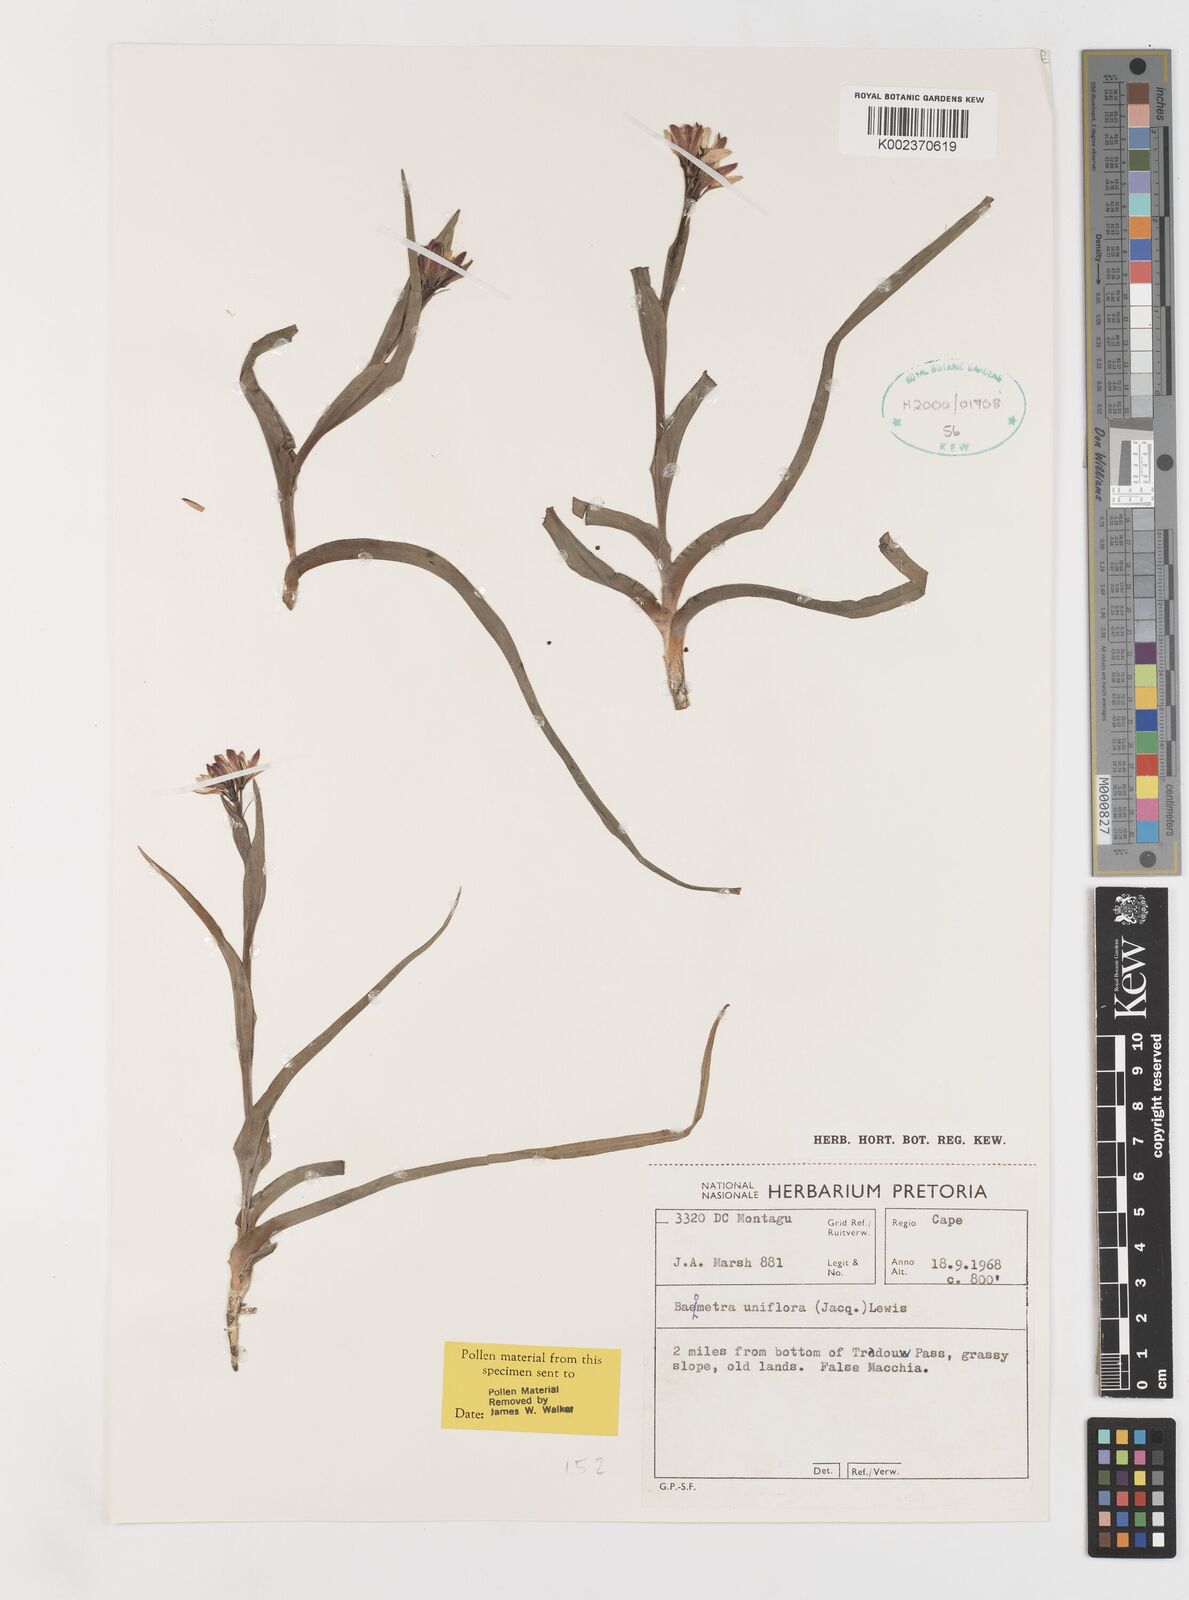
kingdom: Plantae
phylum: Tracheophyta
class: Liliopsida
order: Liliales
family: Colchicaceae
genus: Baeometra
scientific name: Baeometra uniflora
